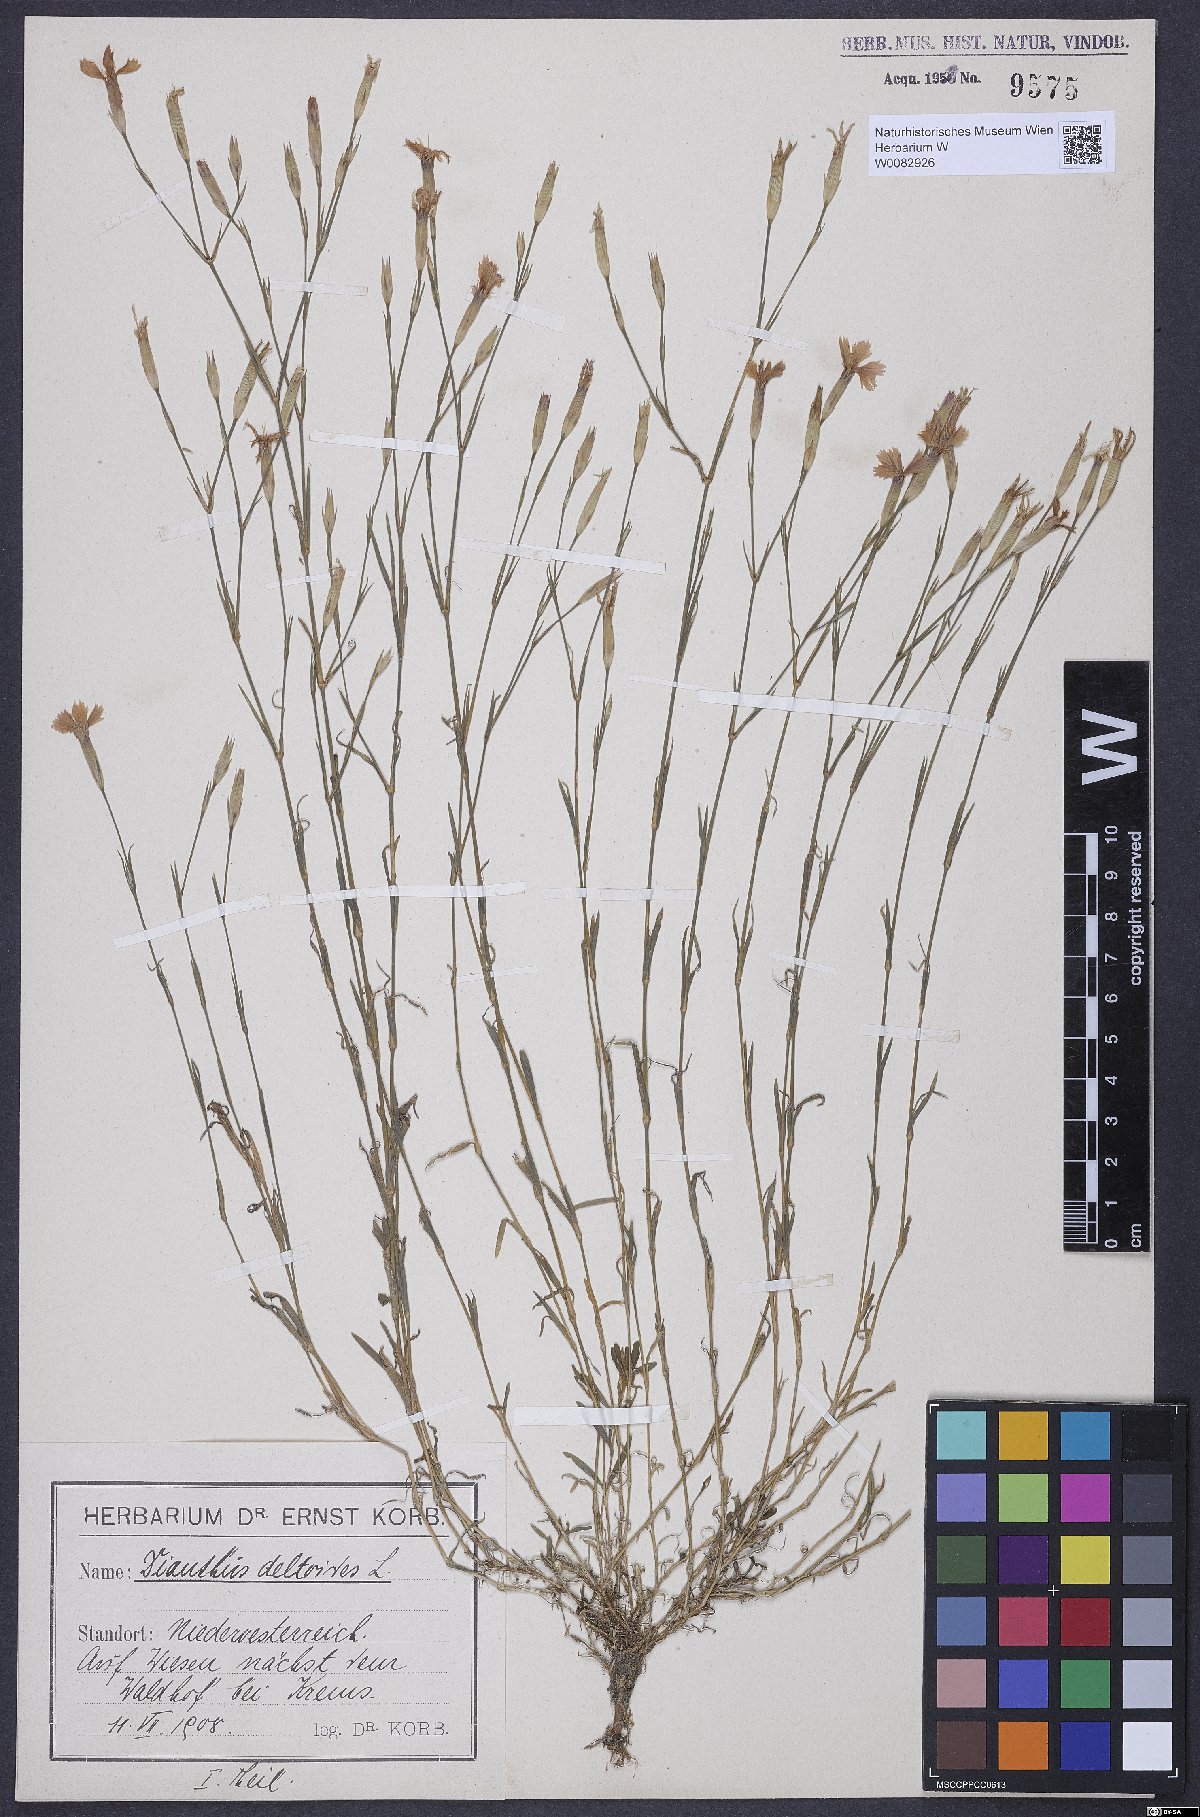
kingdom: Plantae
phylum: Tracheophyta
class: Magnoliopsida
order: Caryophyllales
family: Caryophyllaceae
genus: Dianthus
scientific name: Dianthus deltoides
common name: Maiden pink
